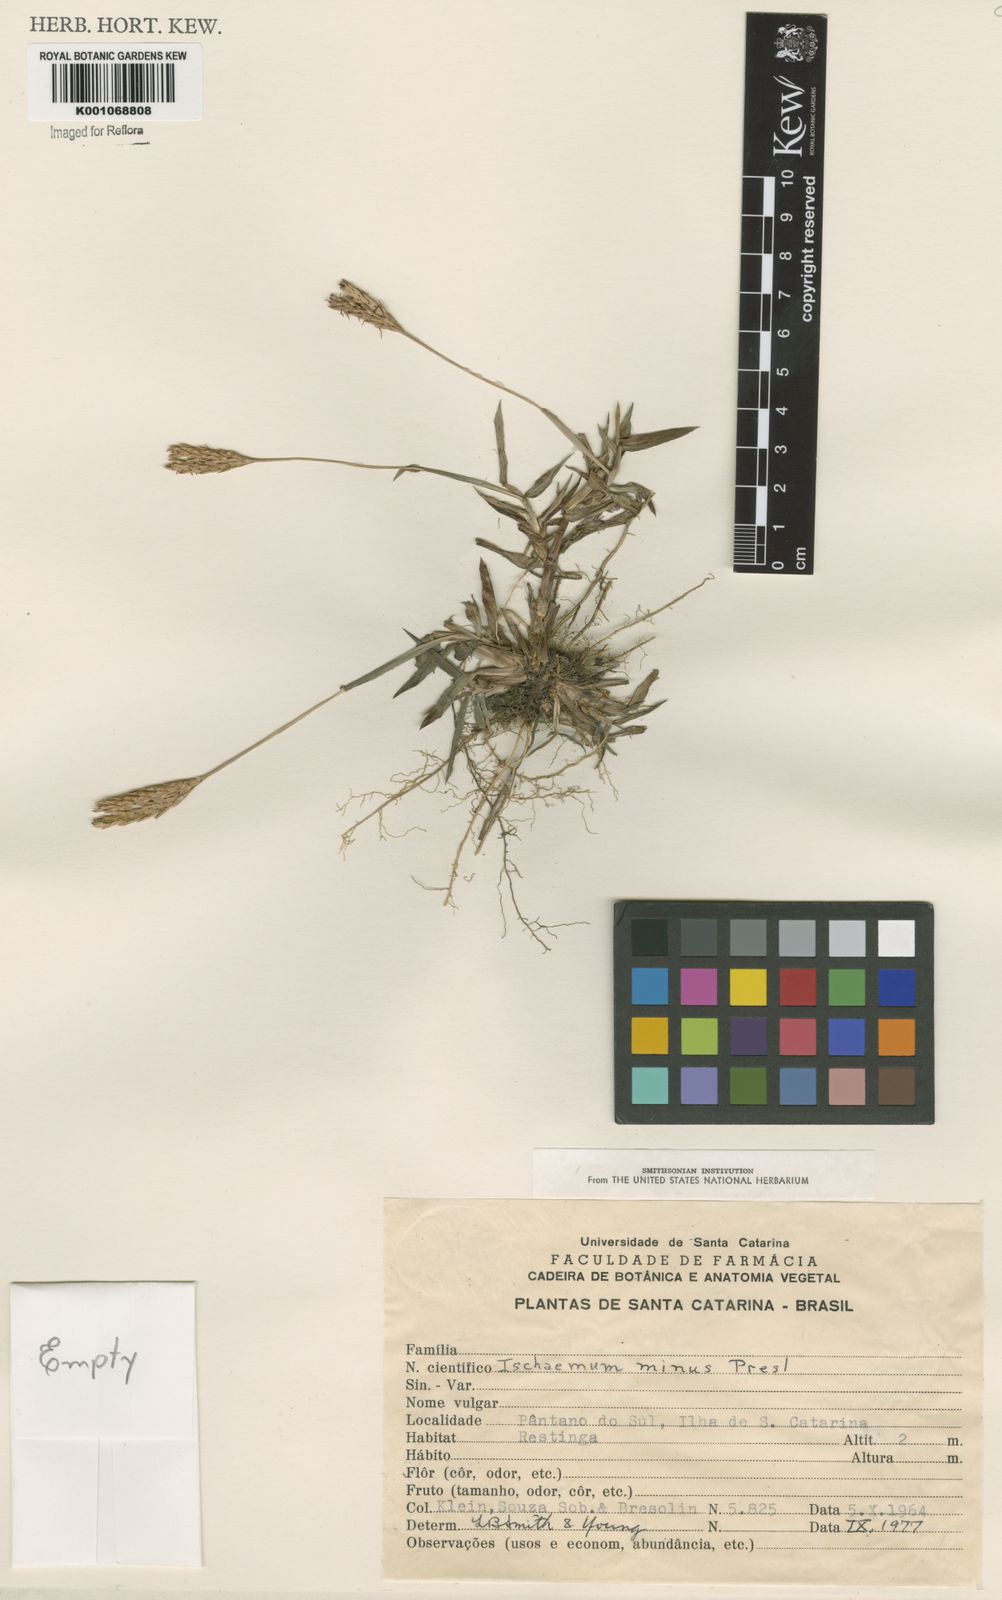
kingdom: Plantae
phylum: Tracheophyta
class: Liliopsida
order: Poales
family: Poaceae
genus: Ischaemum
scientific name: Ischaemum latifolium
